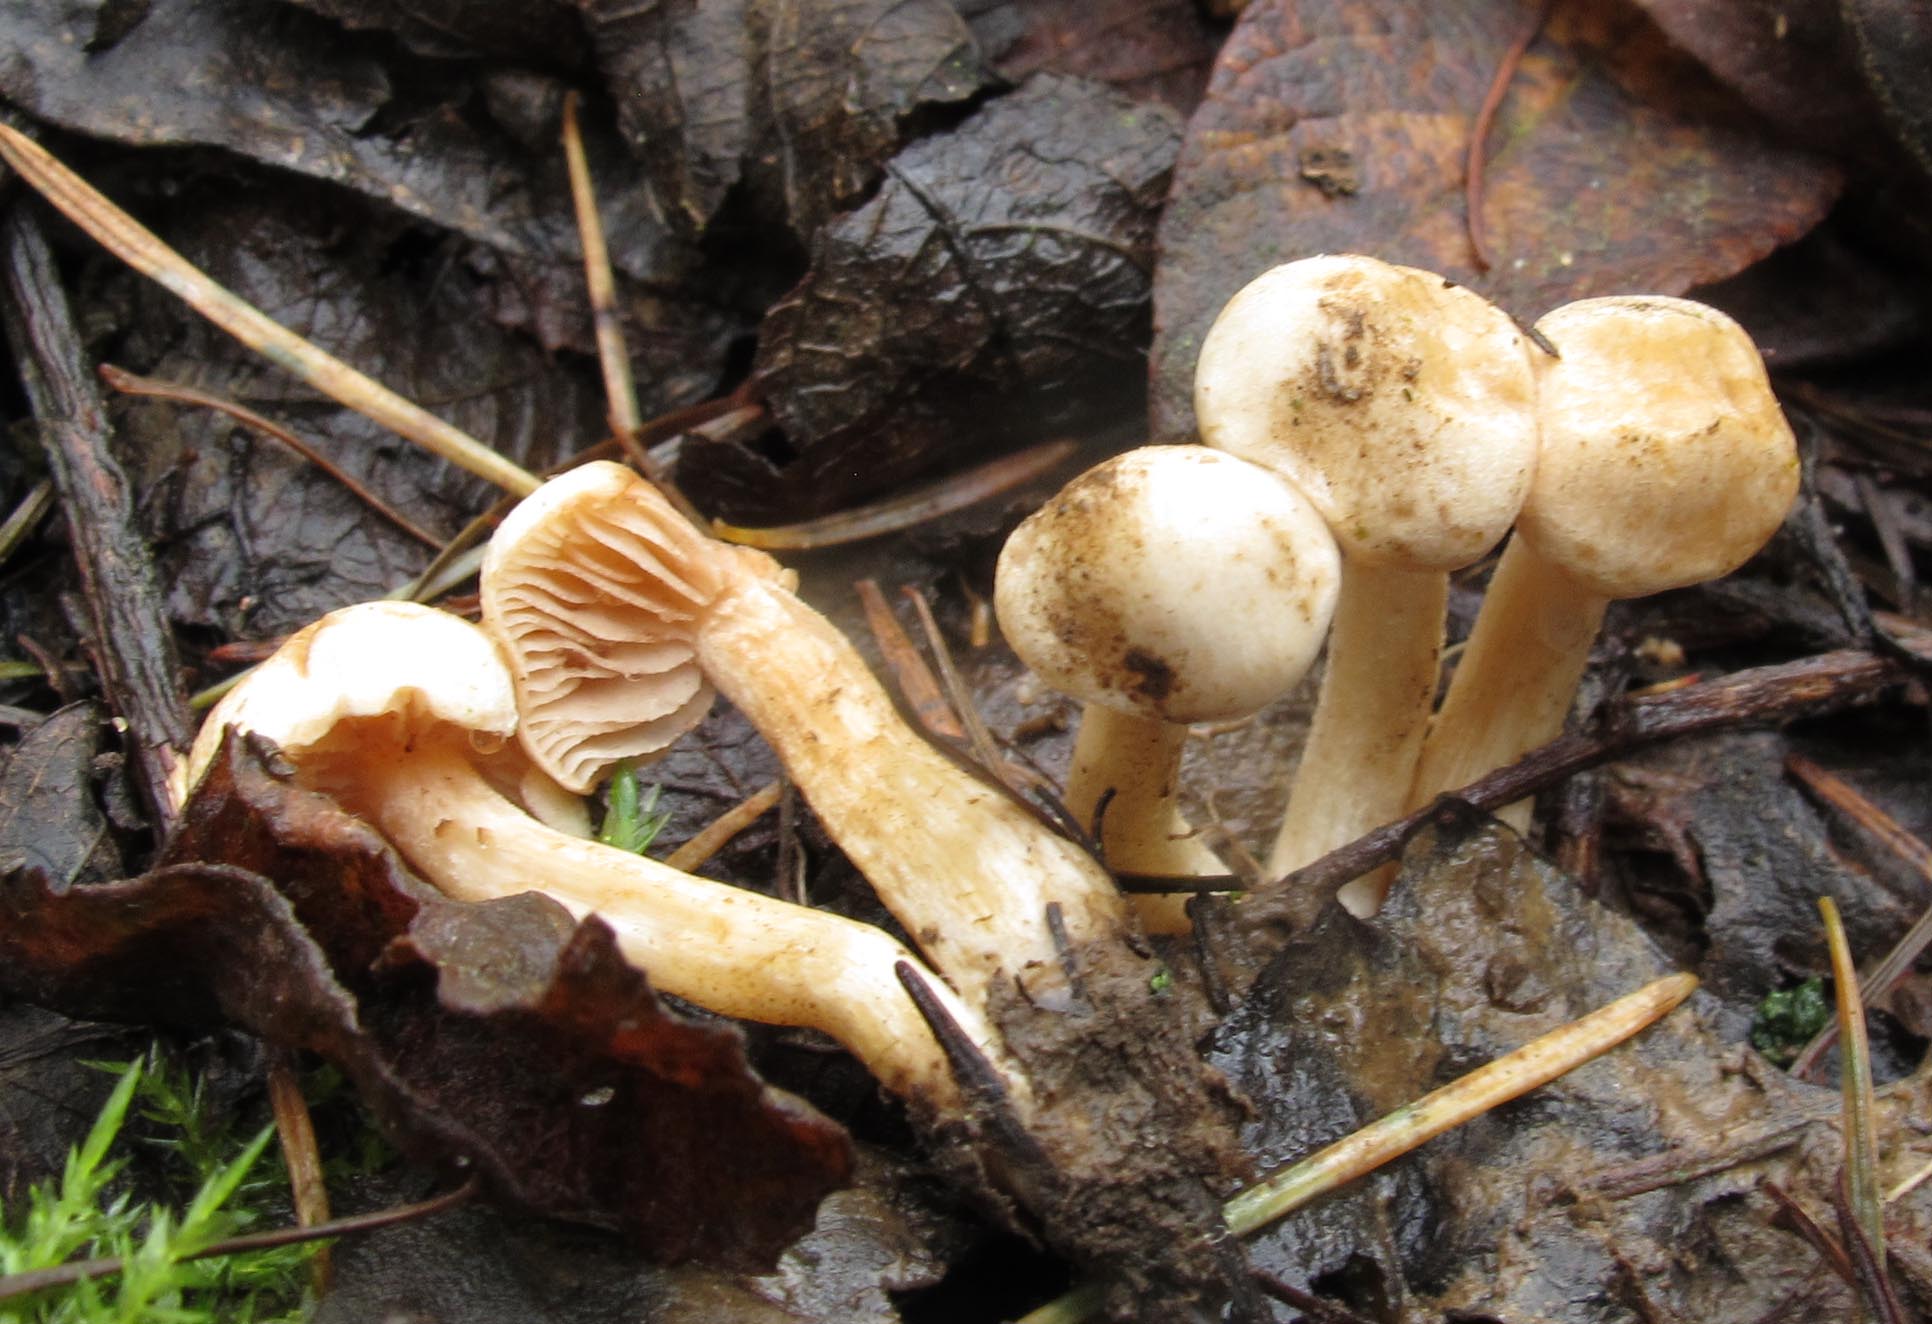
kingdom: Fungi
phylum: Basidiomycota
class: Agaricomycetes
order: Agaricales
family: Hymenogastraceae
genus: Hebeloma
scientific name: Hebeloma odoratissimum
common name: filtet tåreblad
